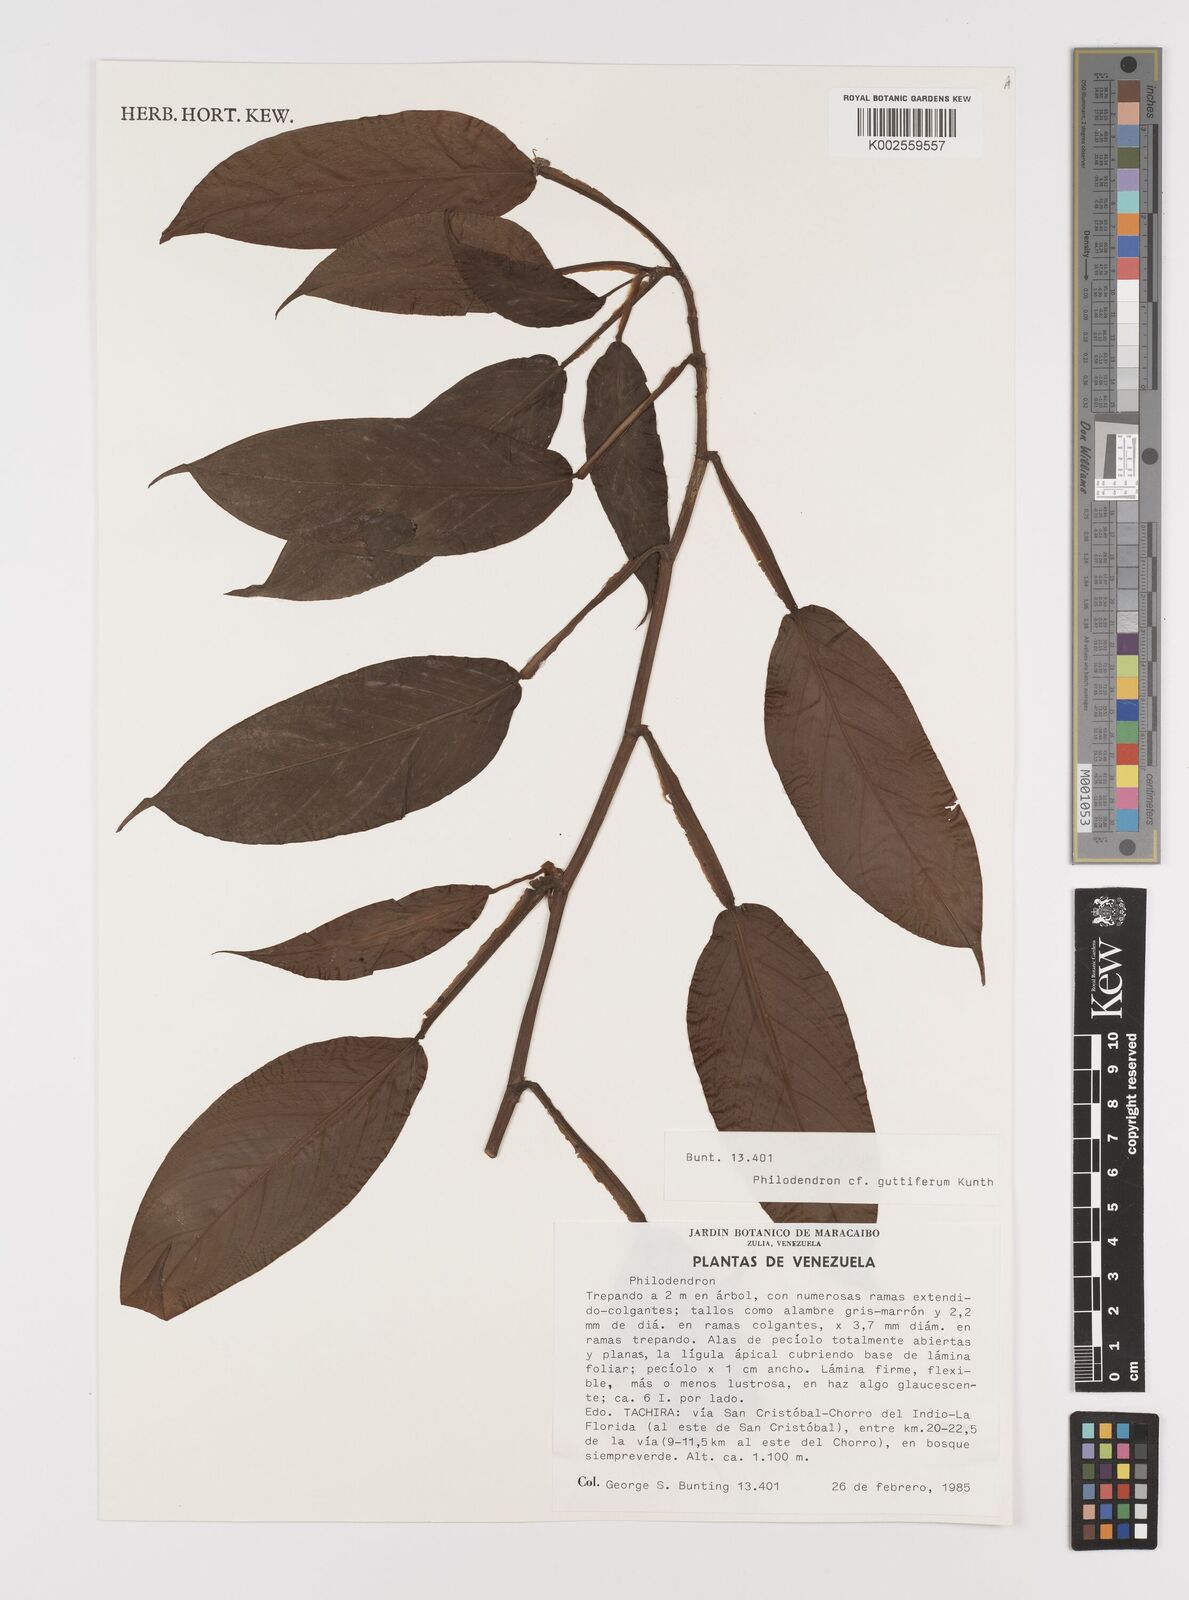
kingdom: Plantae
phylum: Tracheophyta
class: Liliopsida
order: Alismatales
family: Araceae
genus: Philodendron
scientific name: Philodendron guttiferum
